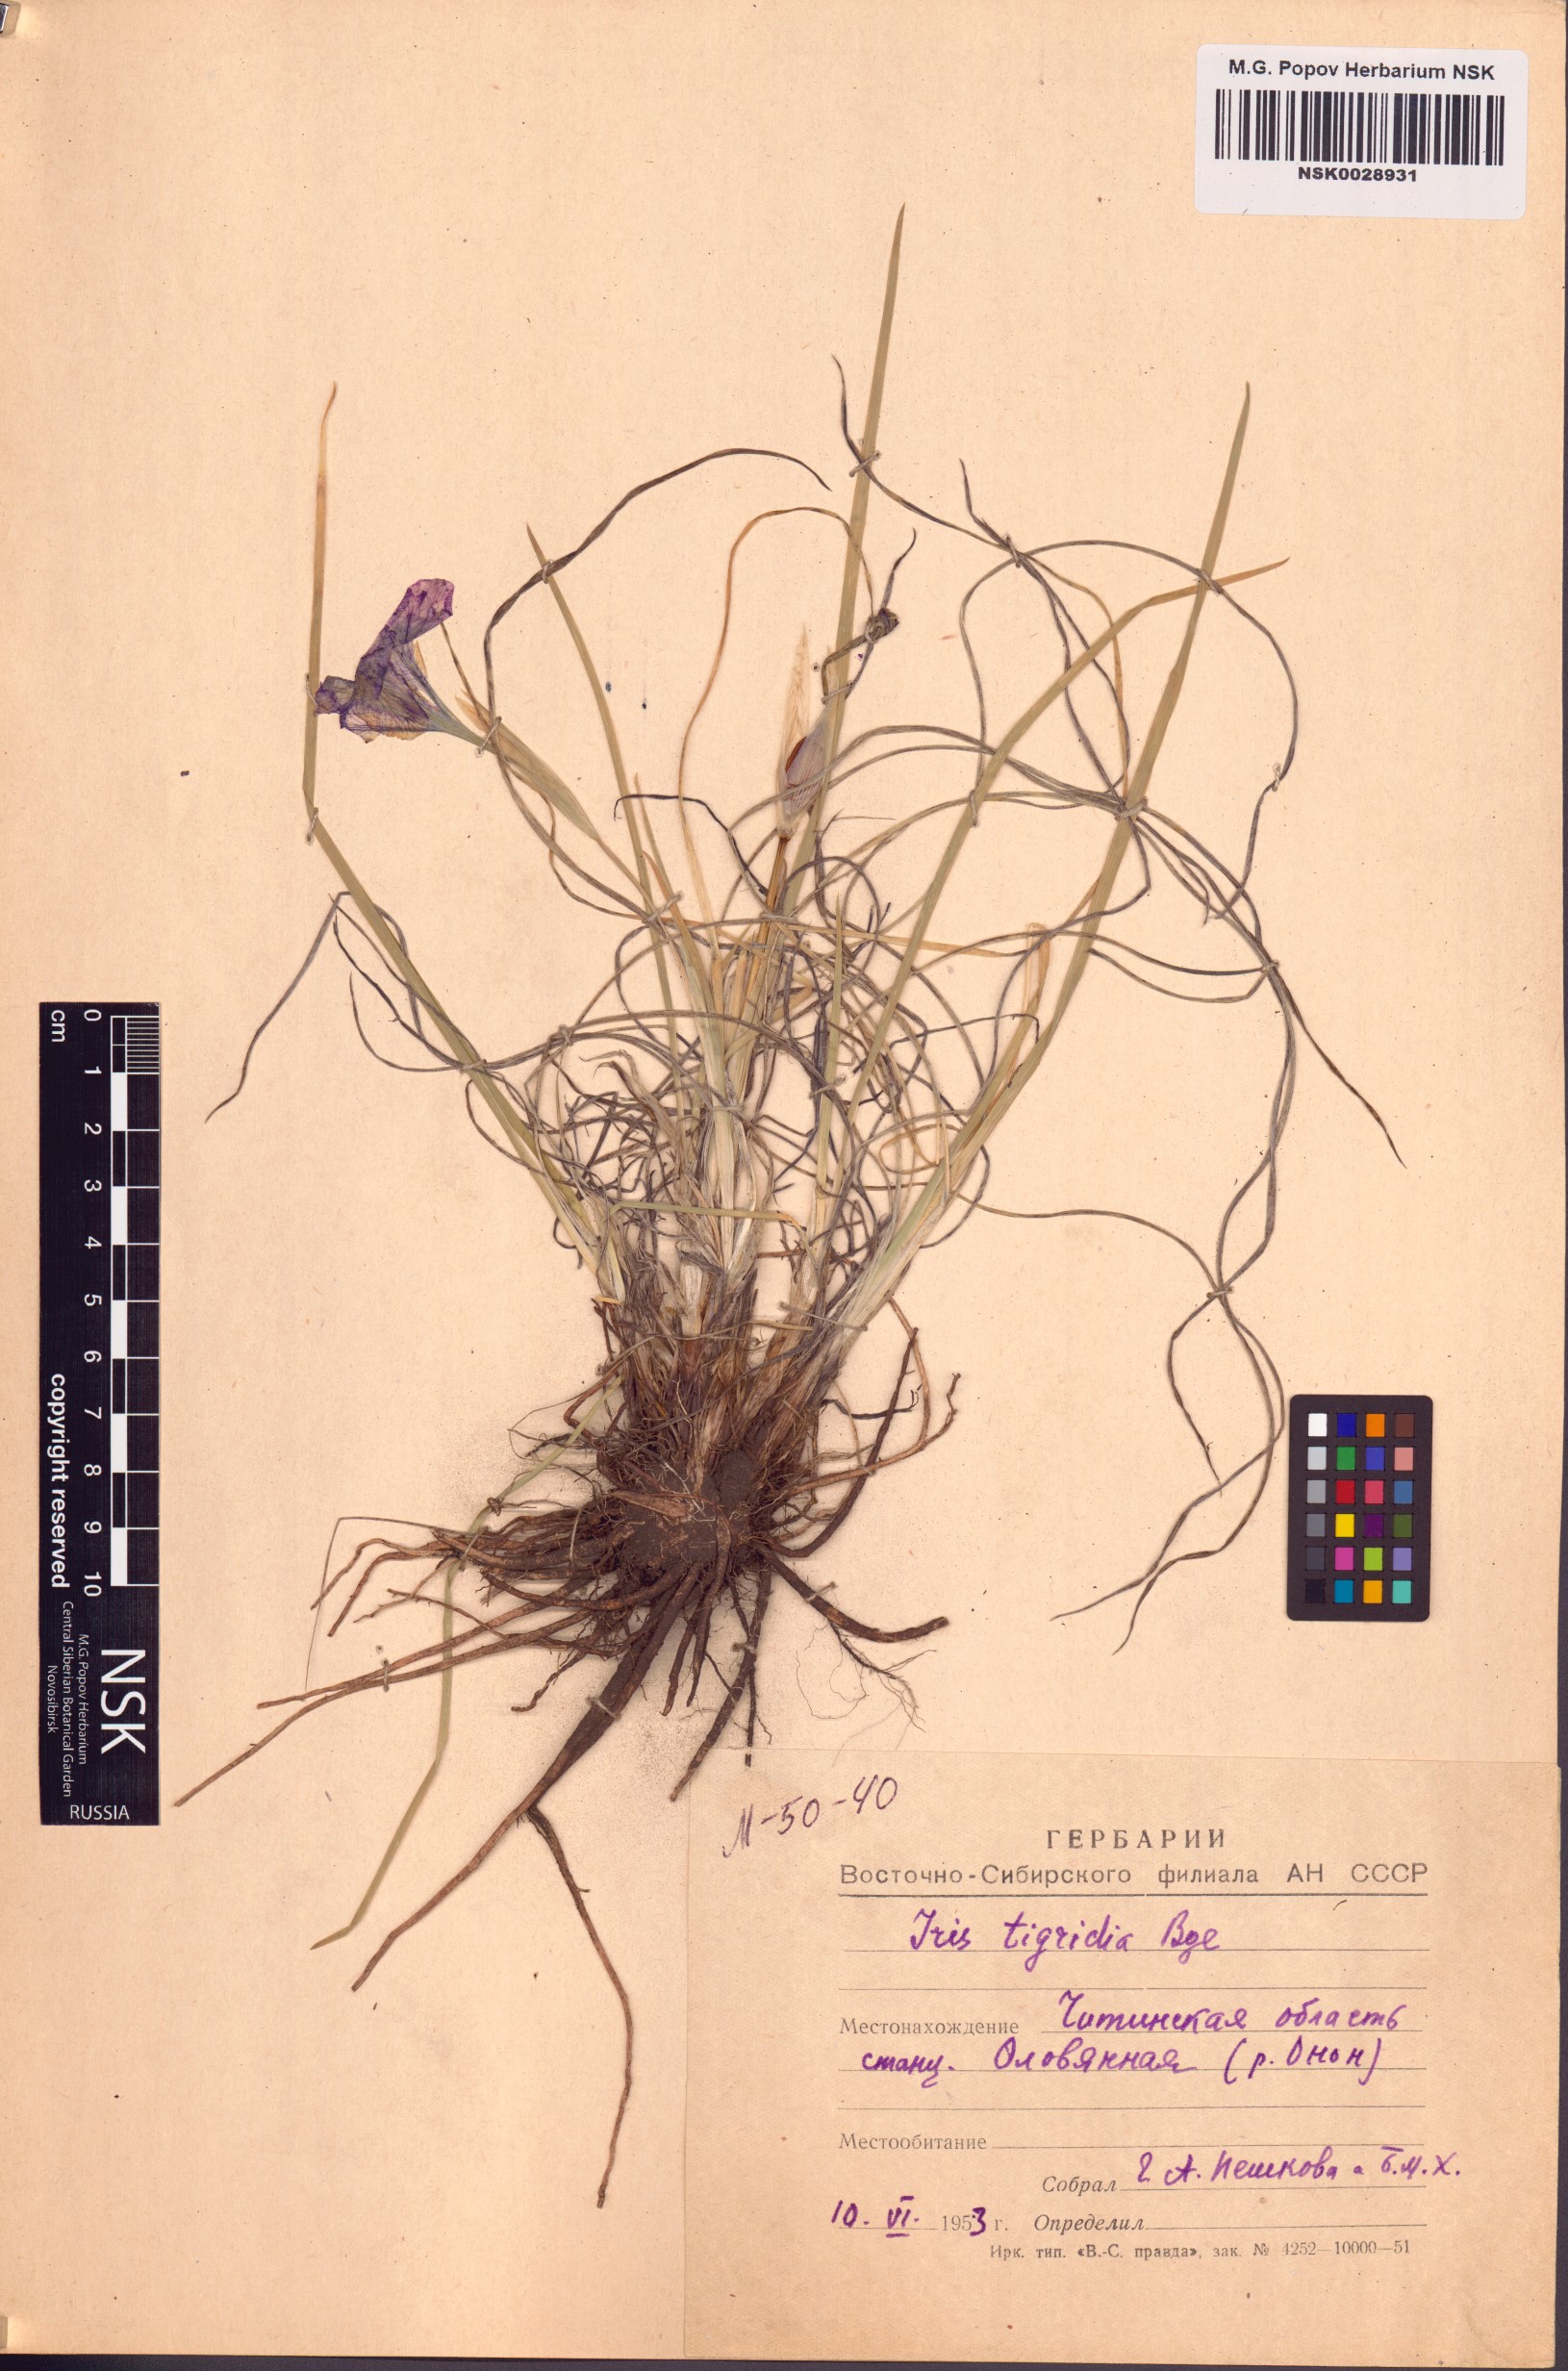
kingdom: Plantae
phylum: Tracheophyta
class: Liliopsida
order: Asparagales
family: Iridaceae
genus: Iris
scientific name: Iris tigridia
